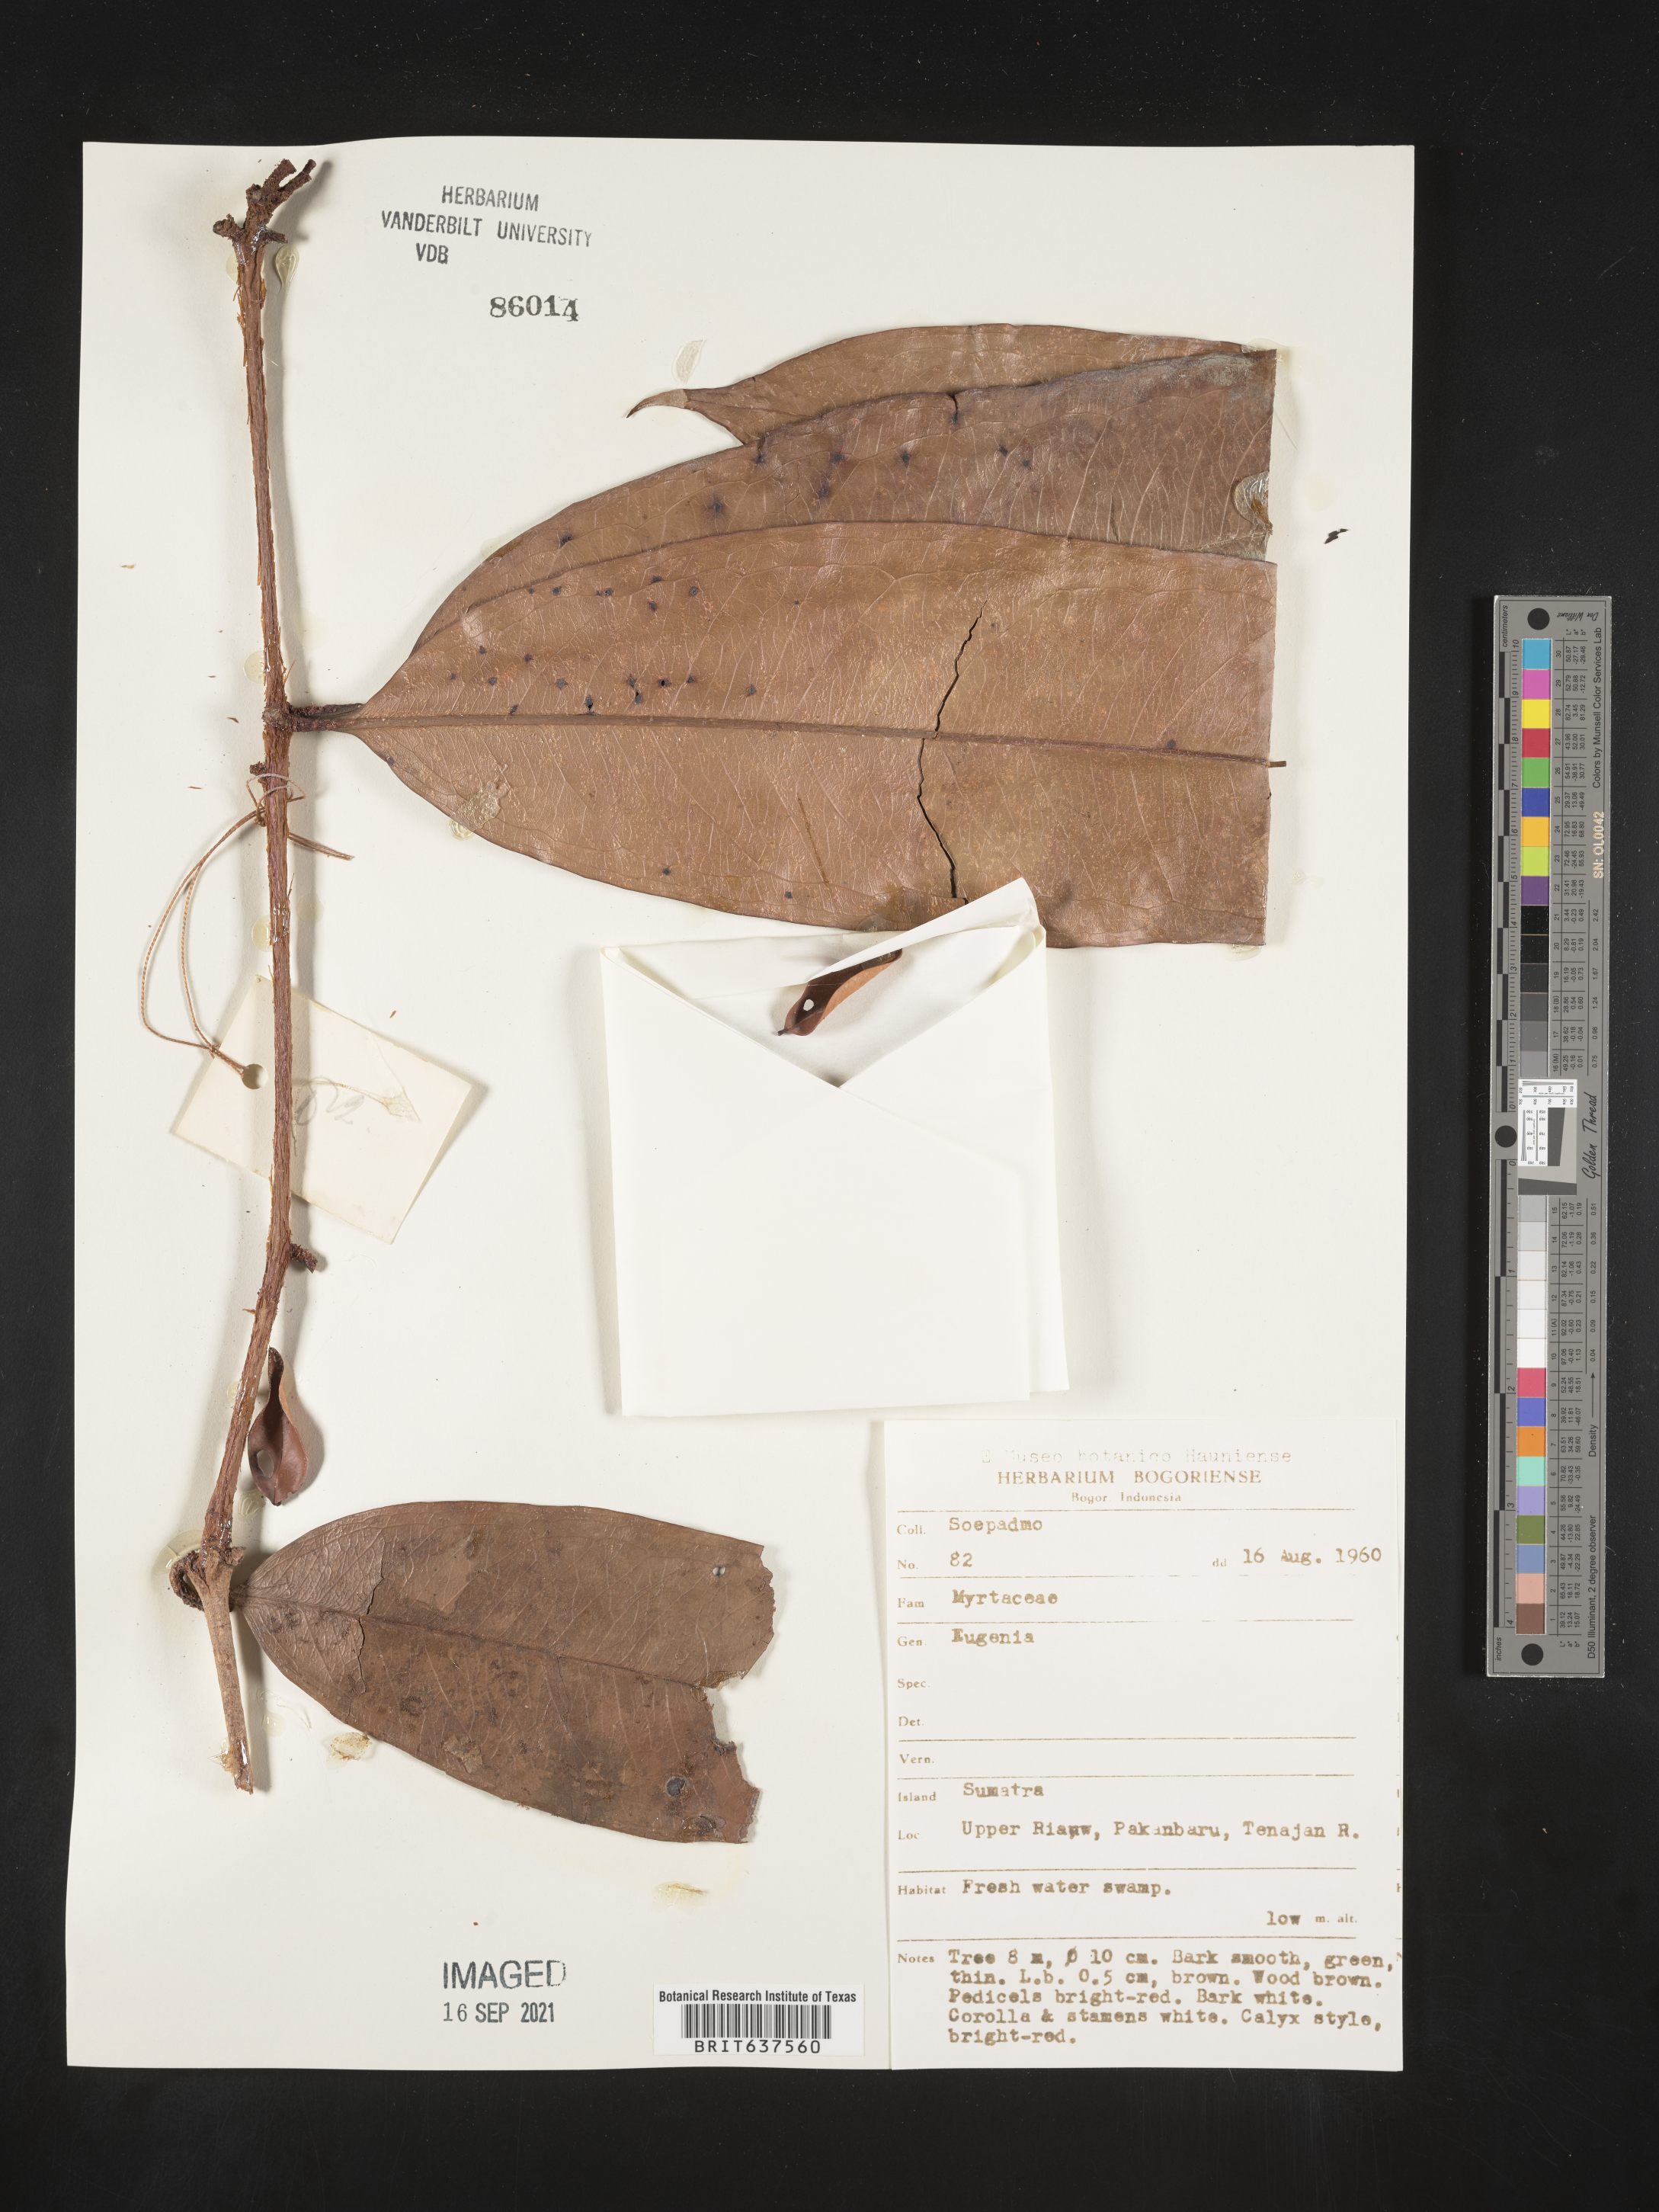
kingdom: Plantae
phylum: Tracheophyta
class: Magnoliopsida
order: Myrtales
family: Myrtaceae
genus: Eugenia
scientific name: Eugenia
